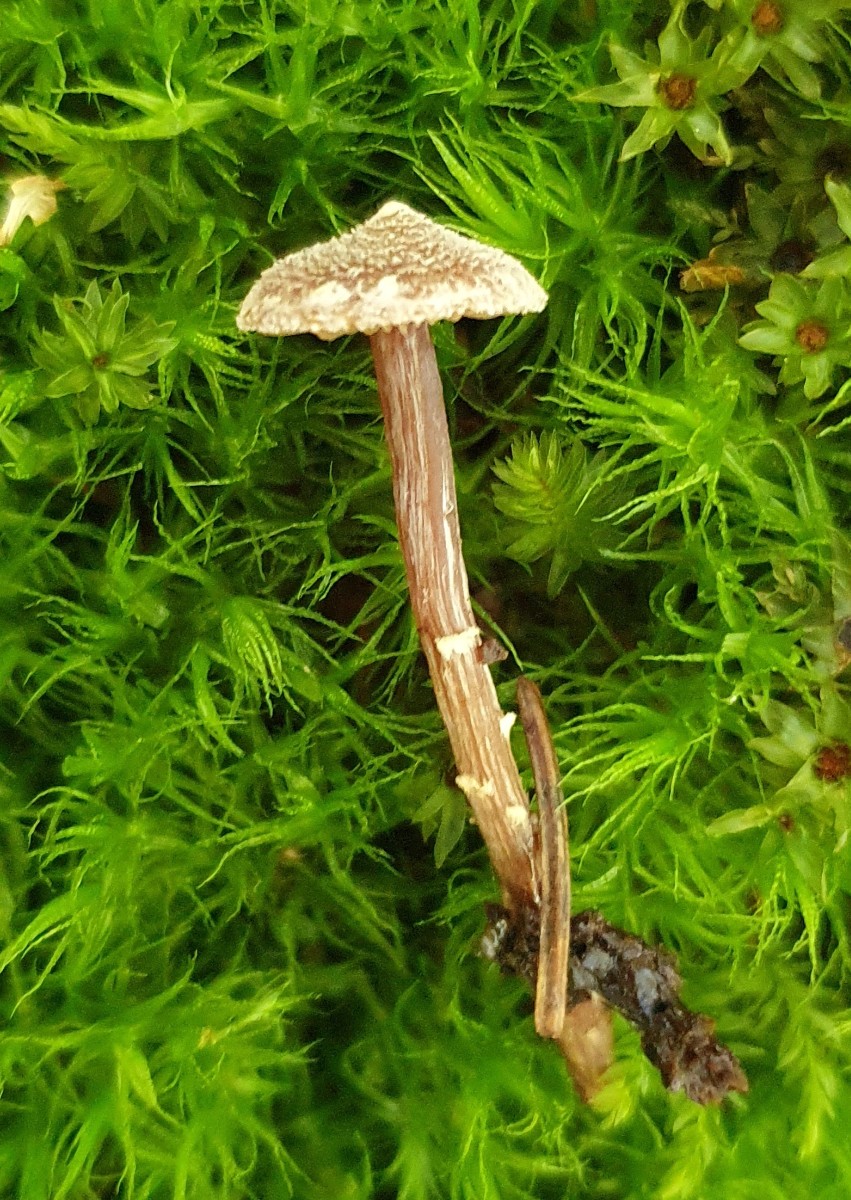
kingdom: Fungi
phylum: Basidiomycota
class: Agaricomycetes
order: Agaricales
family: Cortinariaceae
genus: Cortinarius
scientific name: Cortinarius flexipes
